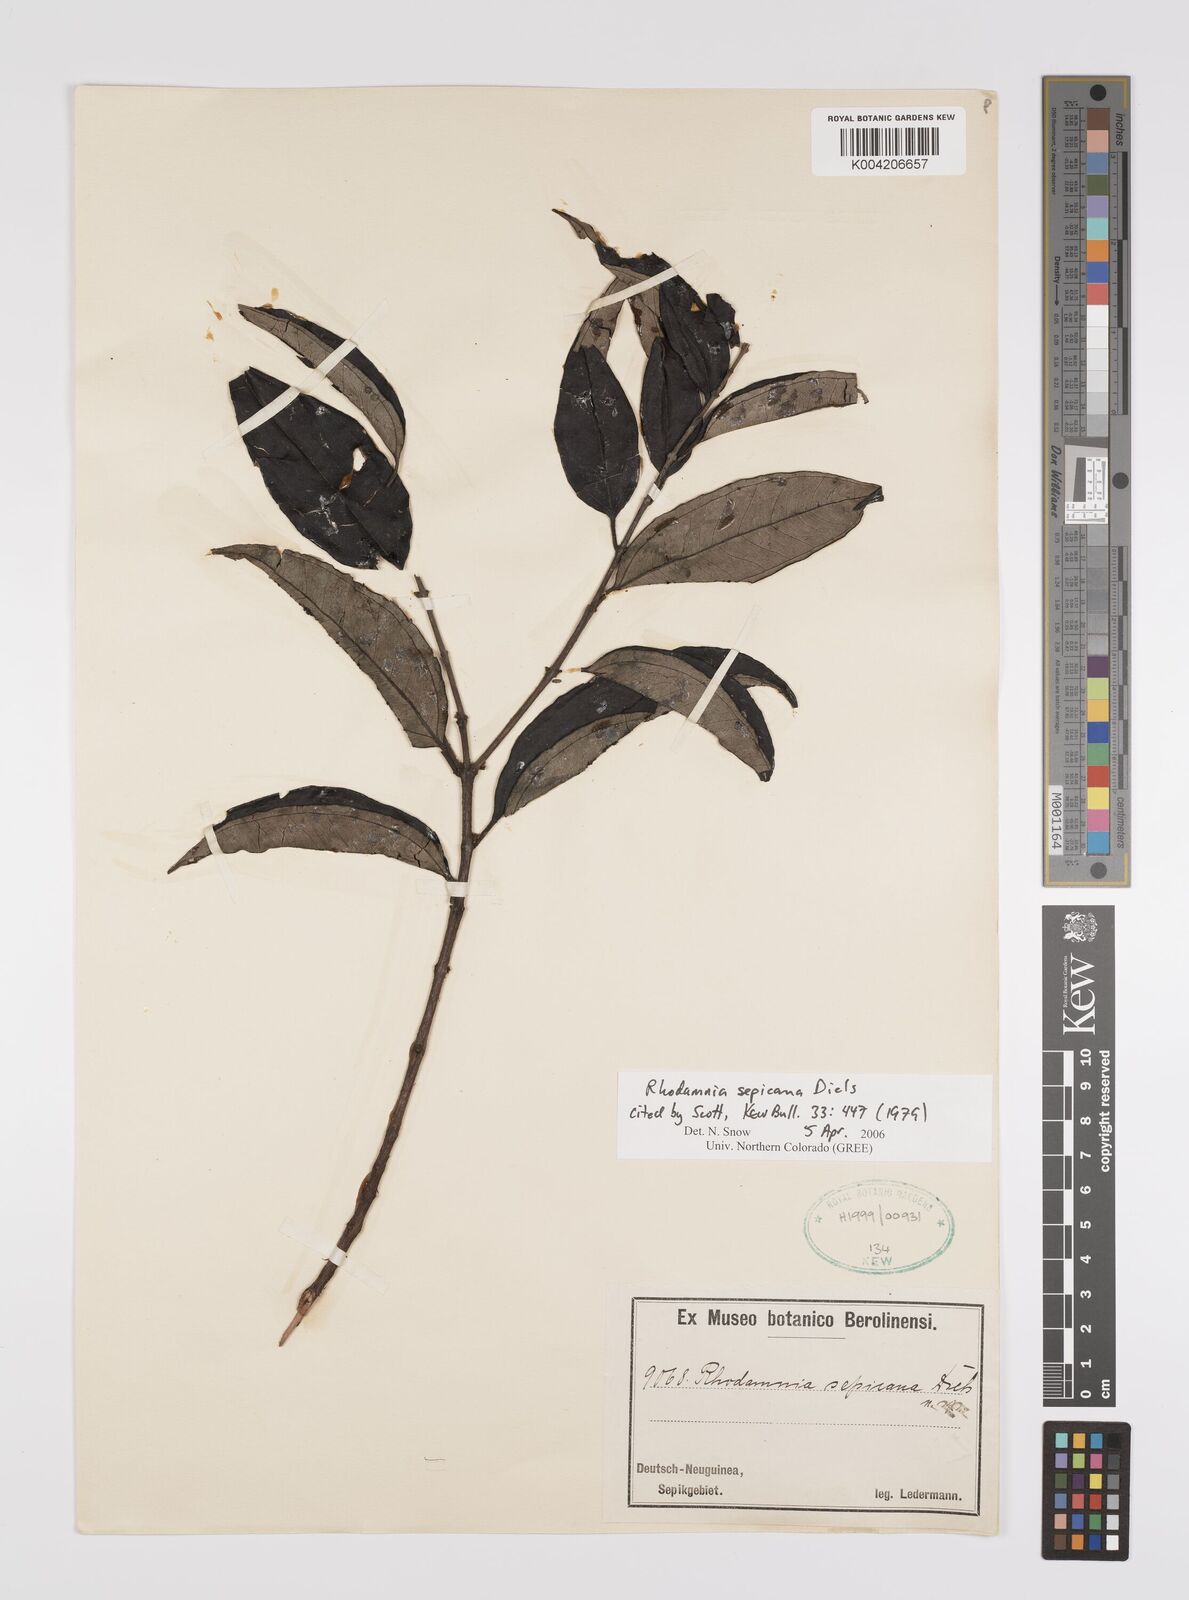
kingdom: Plantae
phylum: Tracheophyta
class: Magnoliopsida
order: Myrtales
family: Myrtaceae
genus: Rhodamnia
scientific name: Rhodamnia sepicana
